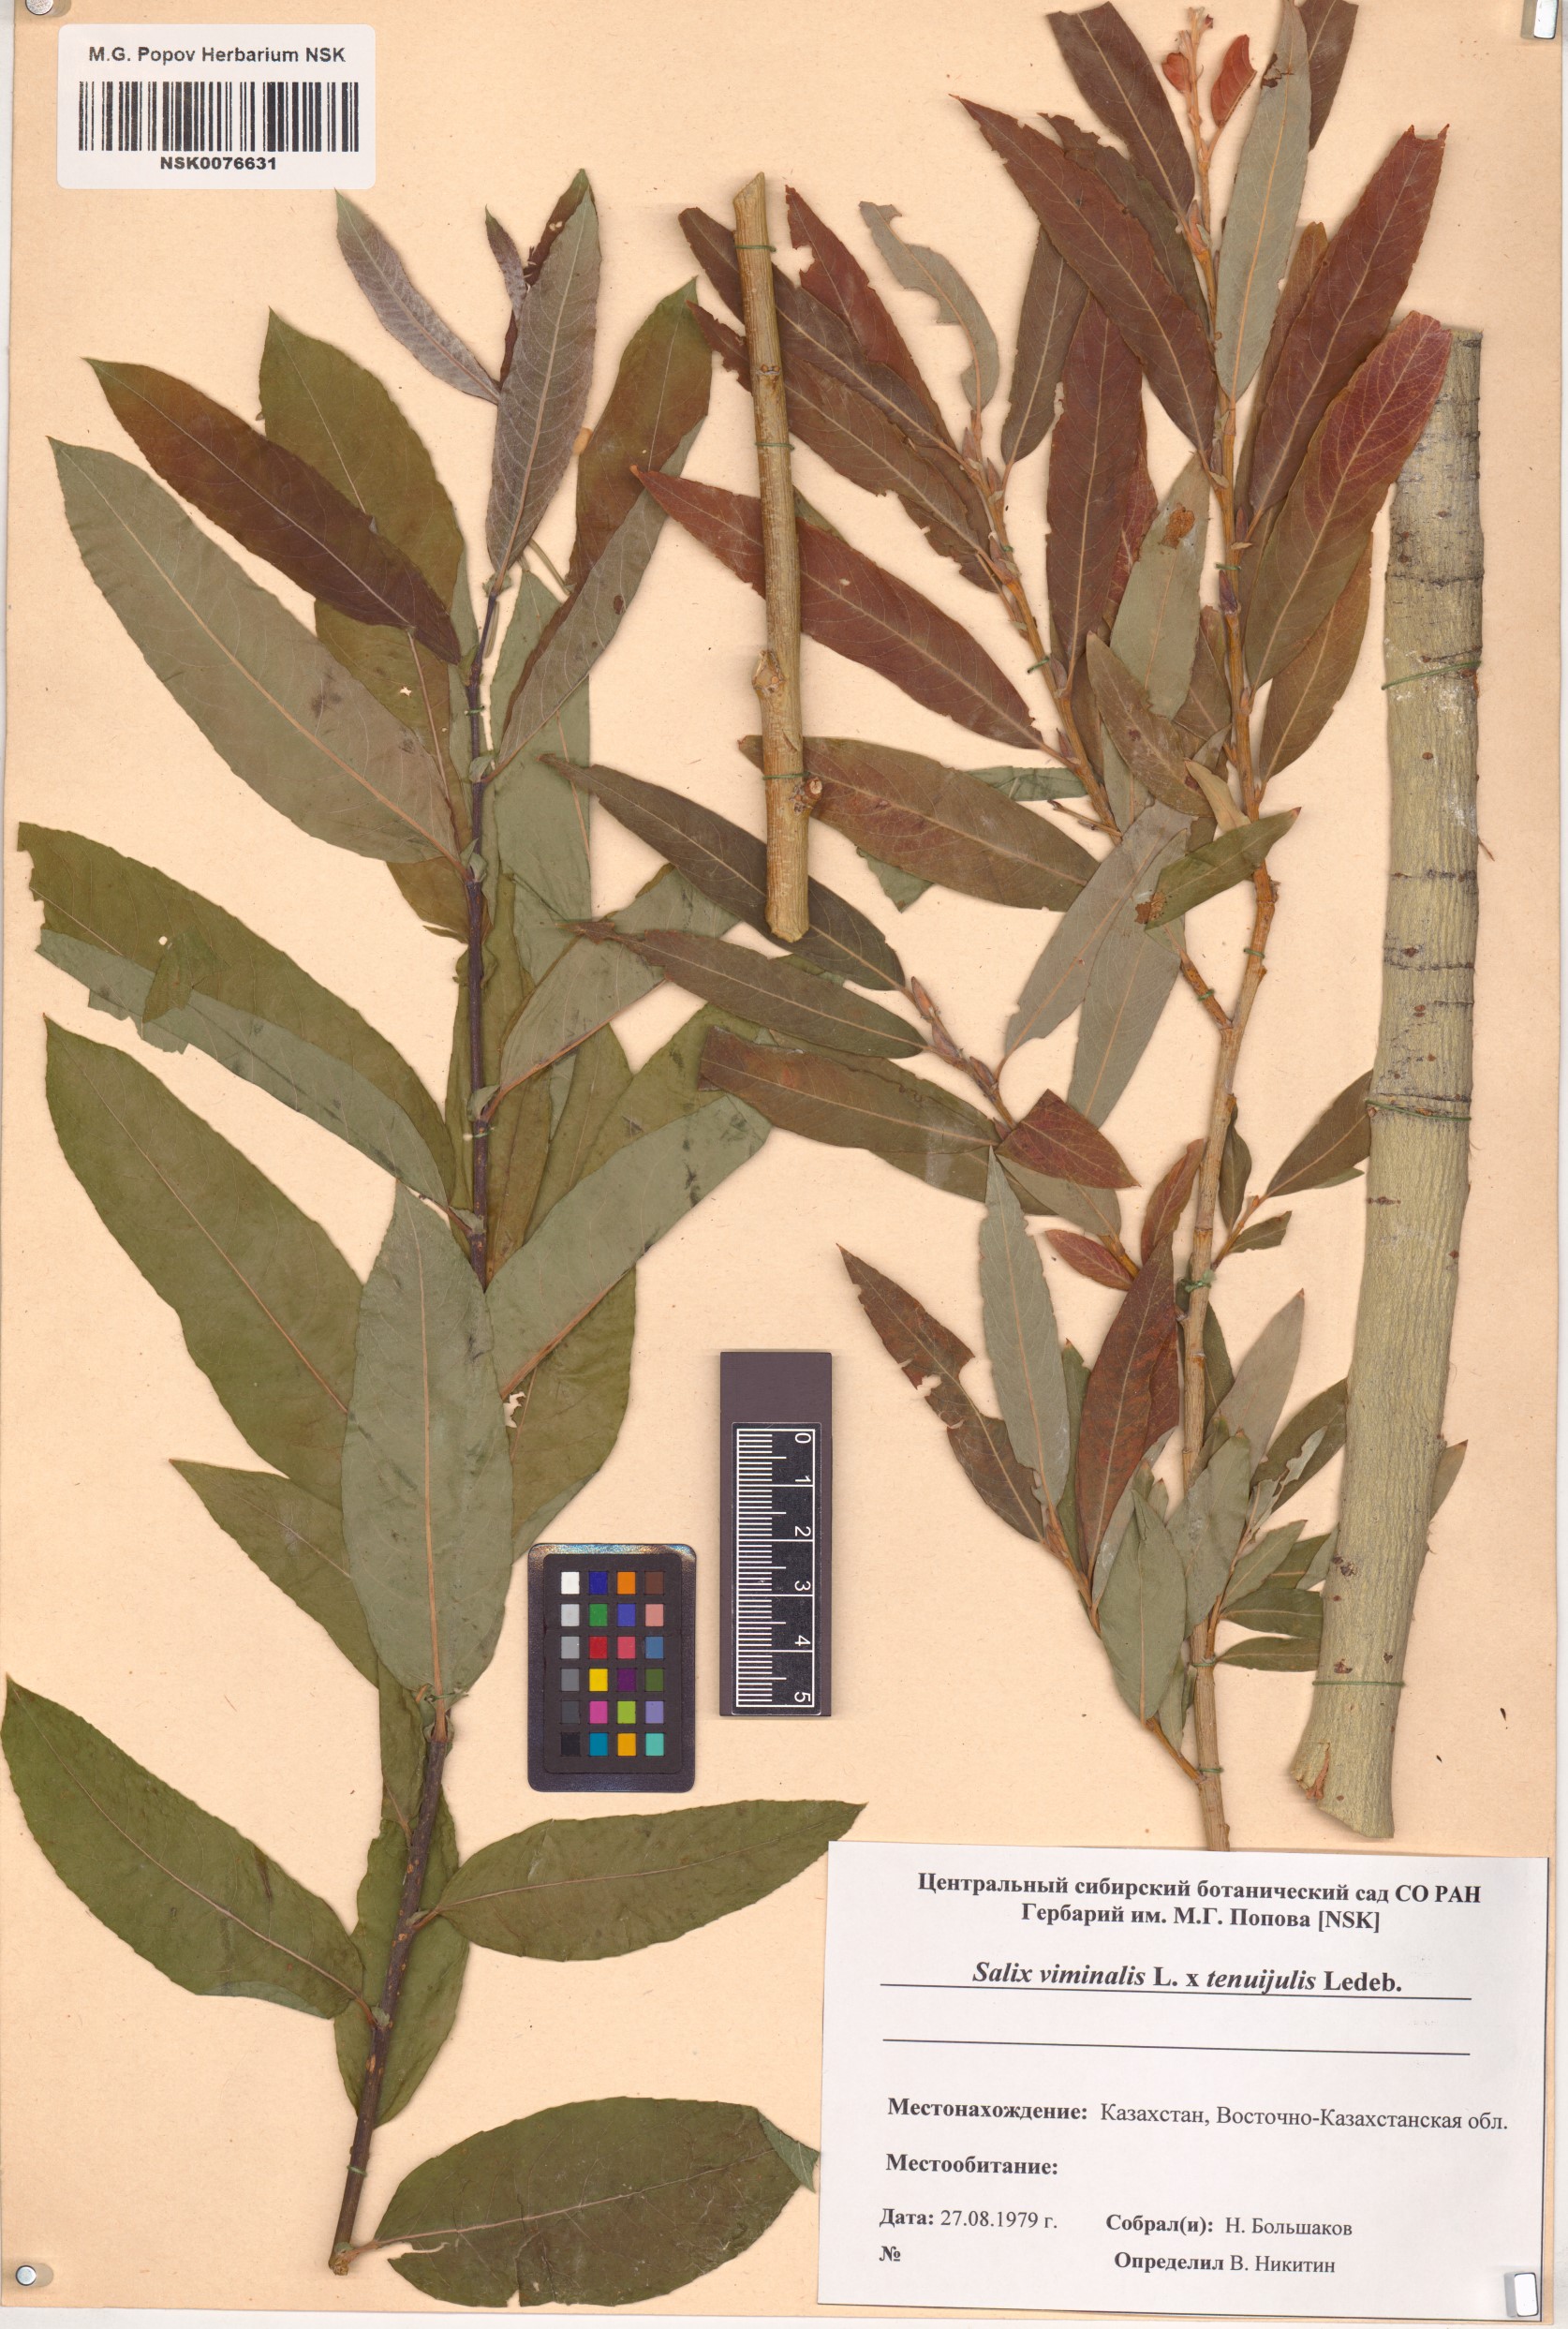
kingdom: Plantae
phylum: Tracheophyta
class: Magnoliopsida
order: Malpighiales
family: Salicaceae
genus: Salix
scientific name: Salix
